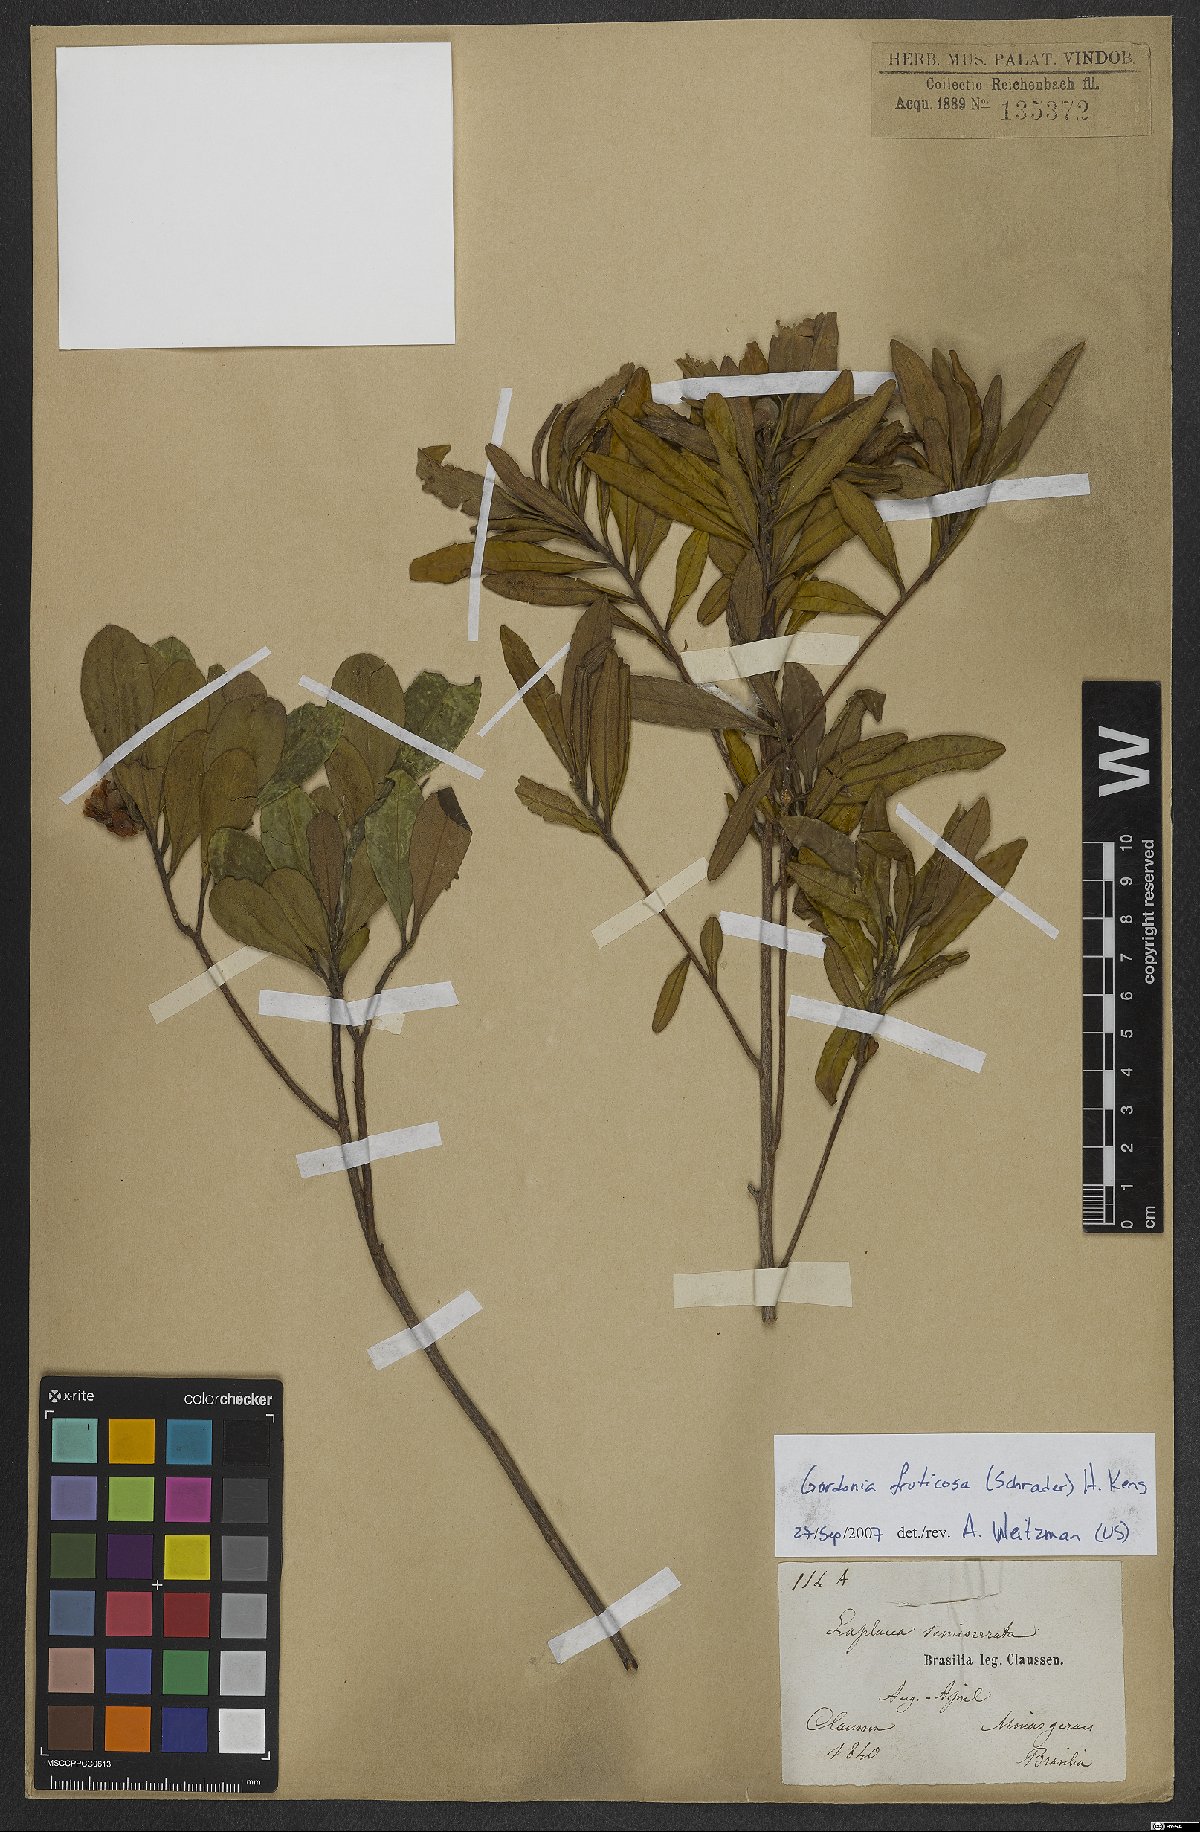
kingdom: Plantae
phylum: Tracheophyta
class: Magnoliopsida
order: Ericales
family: Theaceae
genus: Gordonia
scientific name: Gordonia fruticosa
